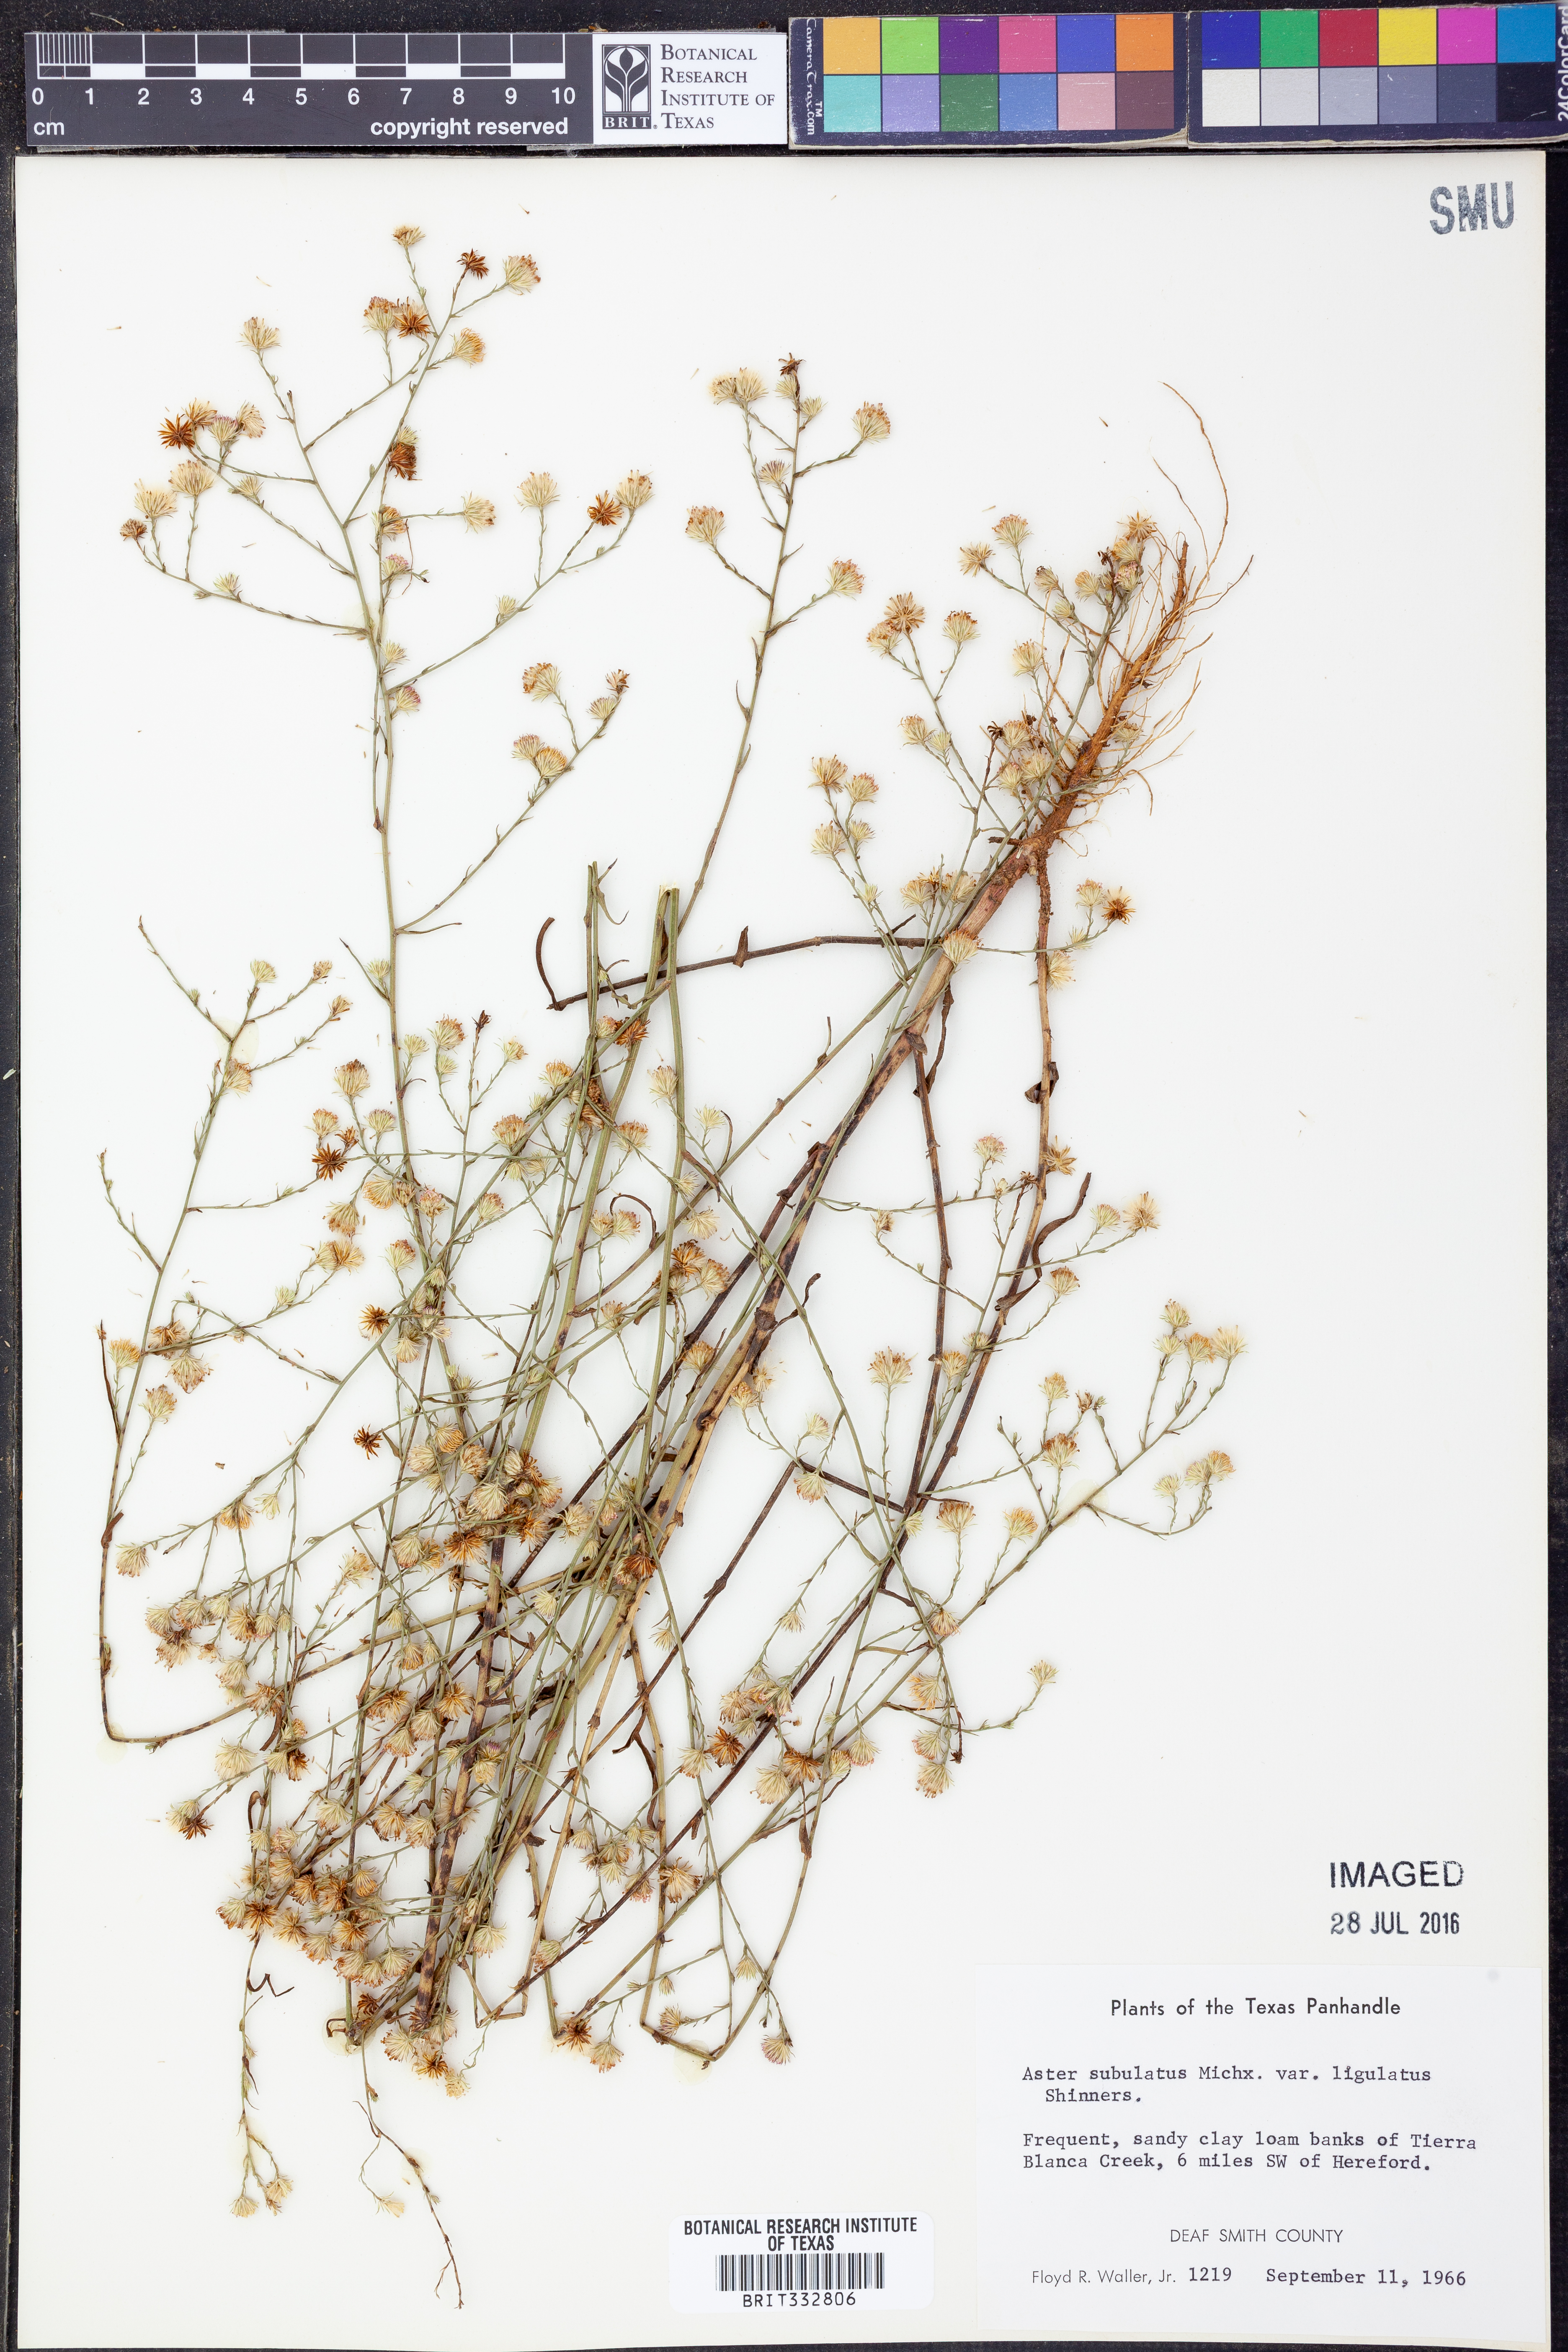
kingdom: Plantae
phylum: Tracheophyta
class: Magnoliopsida
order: Asterales
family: Asteraceae
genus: Symphyotrichum
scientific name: Symphyotrichum divaricatum
